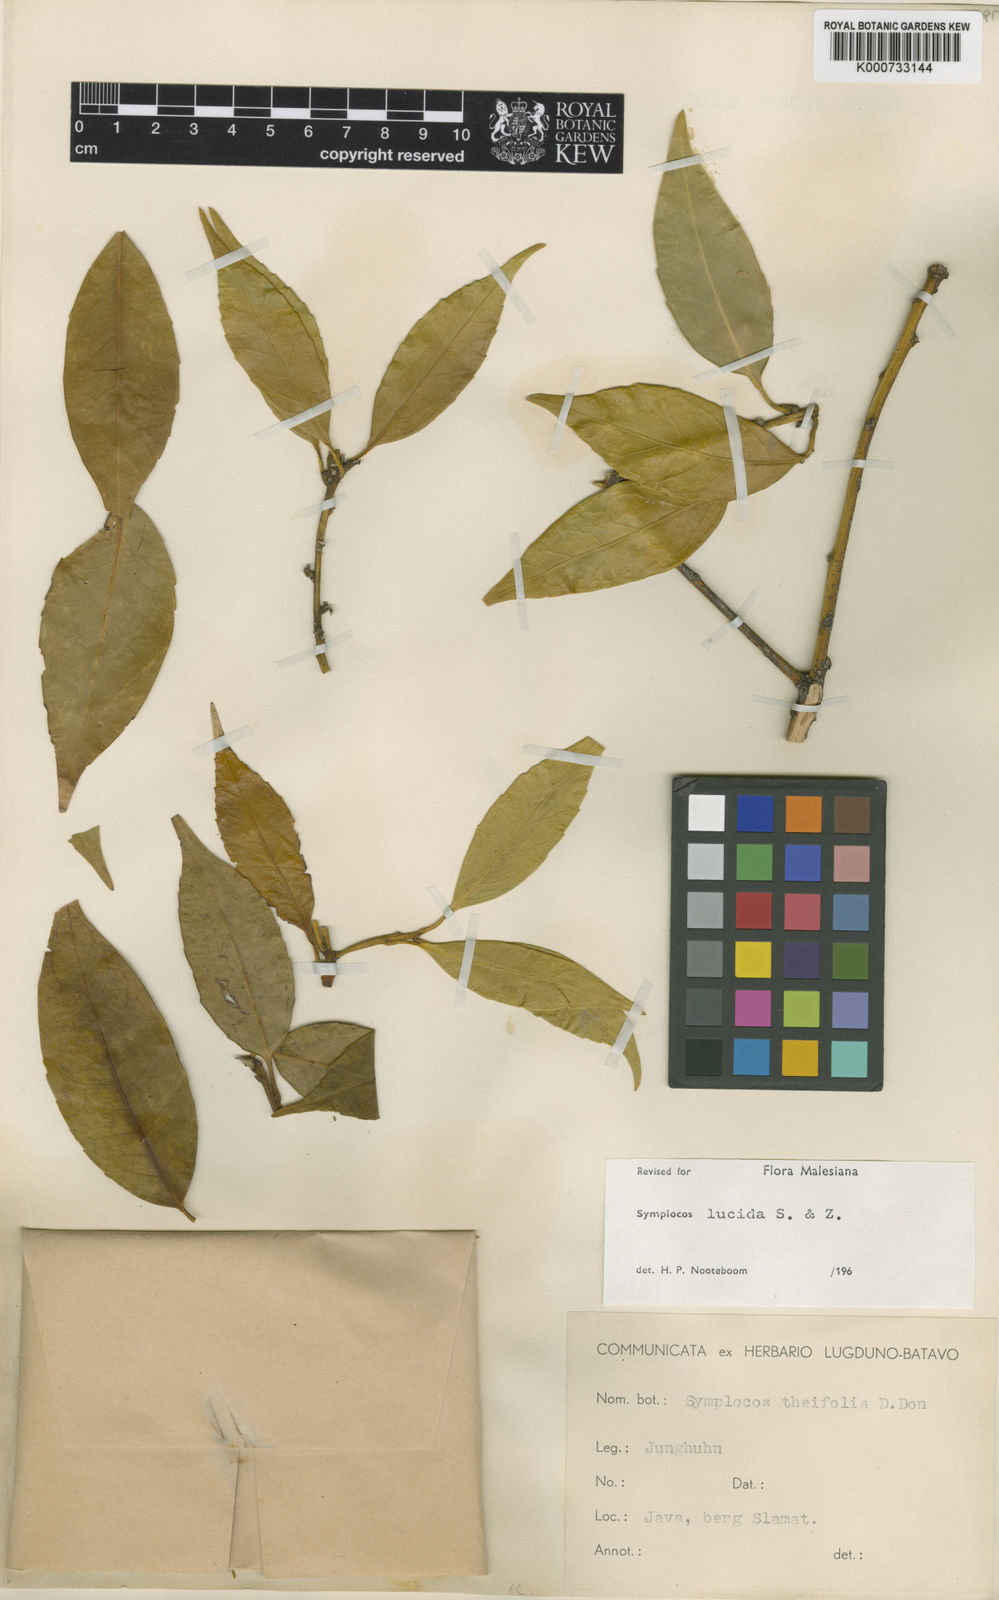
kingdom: Plantae
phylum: Tracheophyta
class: Magnoliopsida
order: Ericales
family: Symplocaceae
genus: Symplocos
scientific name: Symplocos
